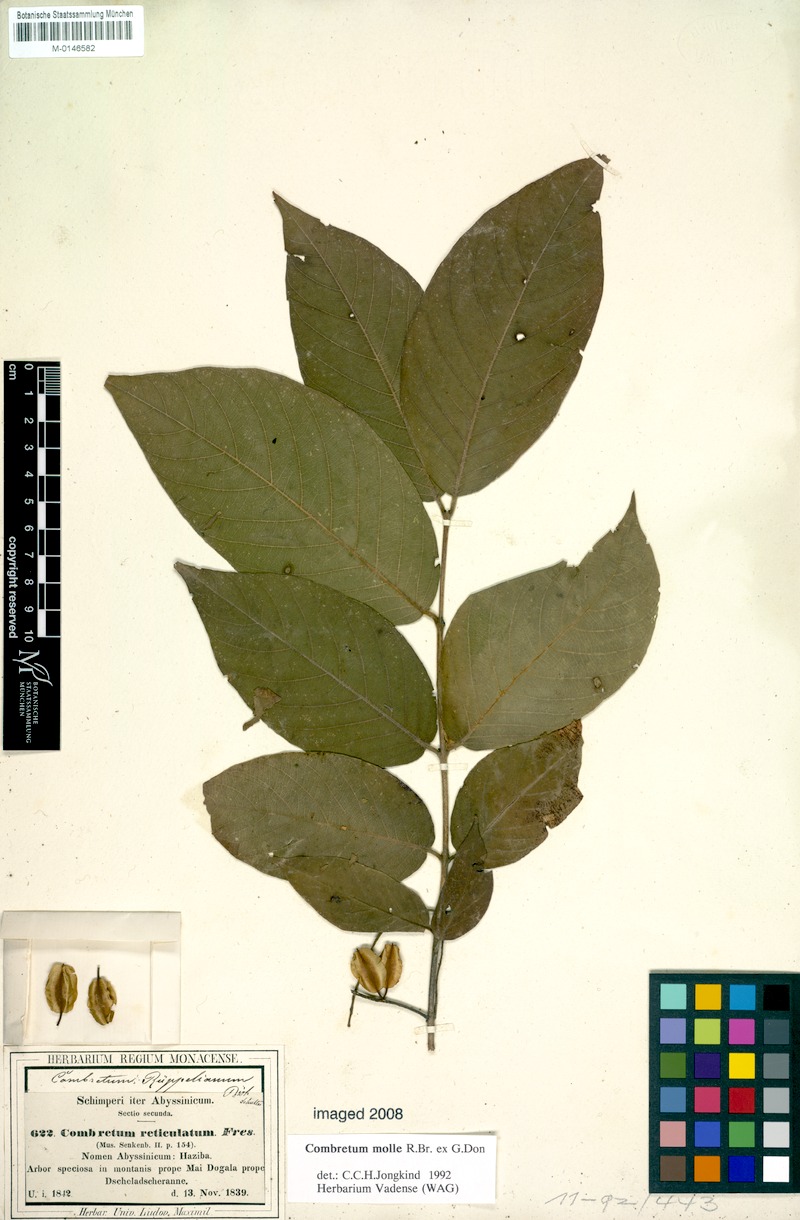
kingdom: Plantae
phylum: Tracheophyta
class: Magnoliopsida
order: Myrtales
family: Combretaceae
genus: Combretum
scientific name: Combretum molle
